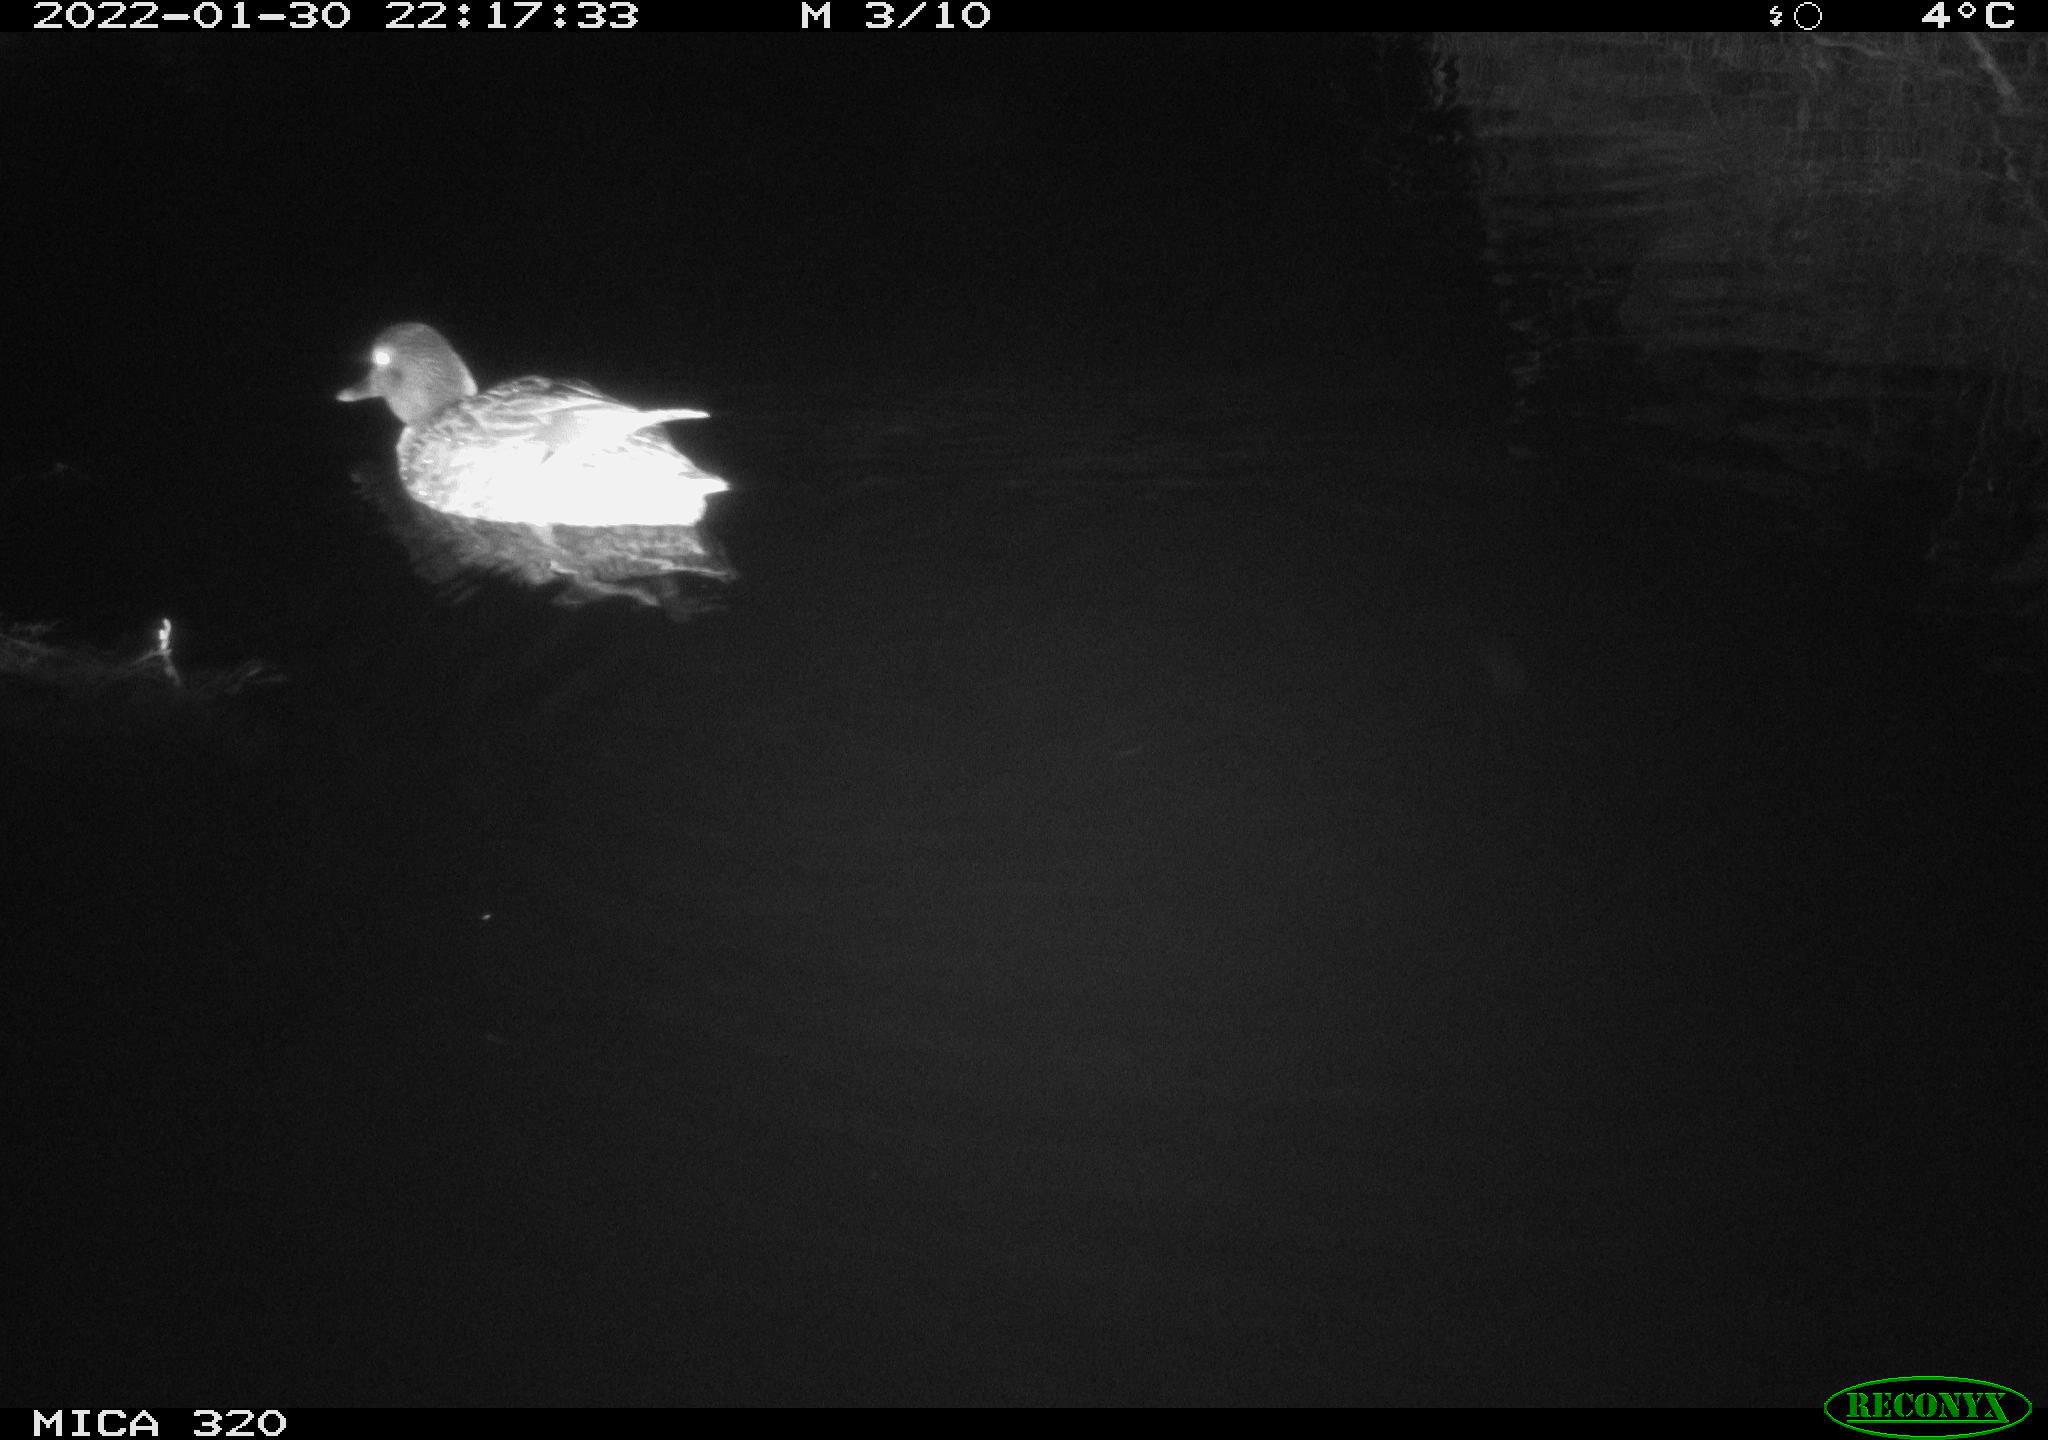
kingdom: Animalia
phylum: Chordata
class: Aves
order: Anseriformes
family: Anatidae
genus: Anas
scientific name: Anas
